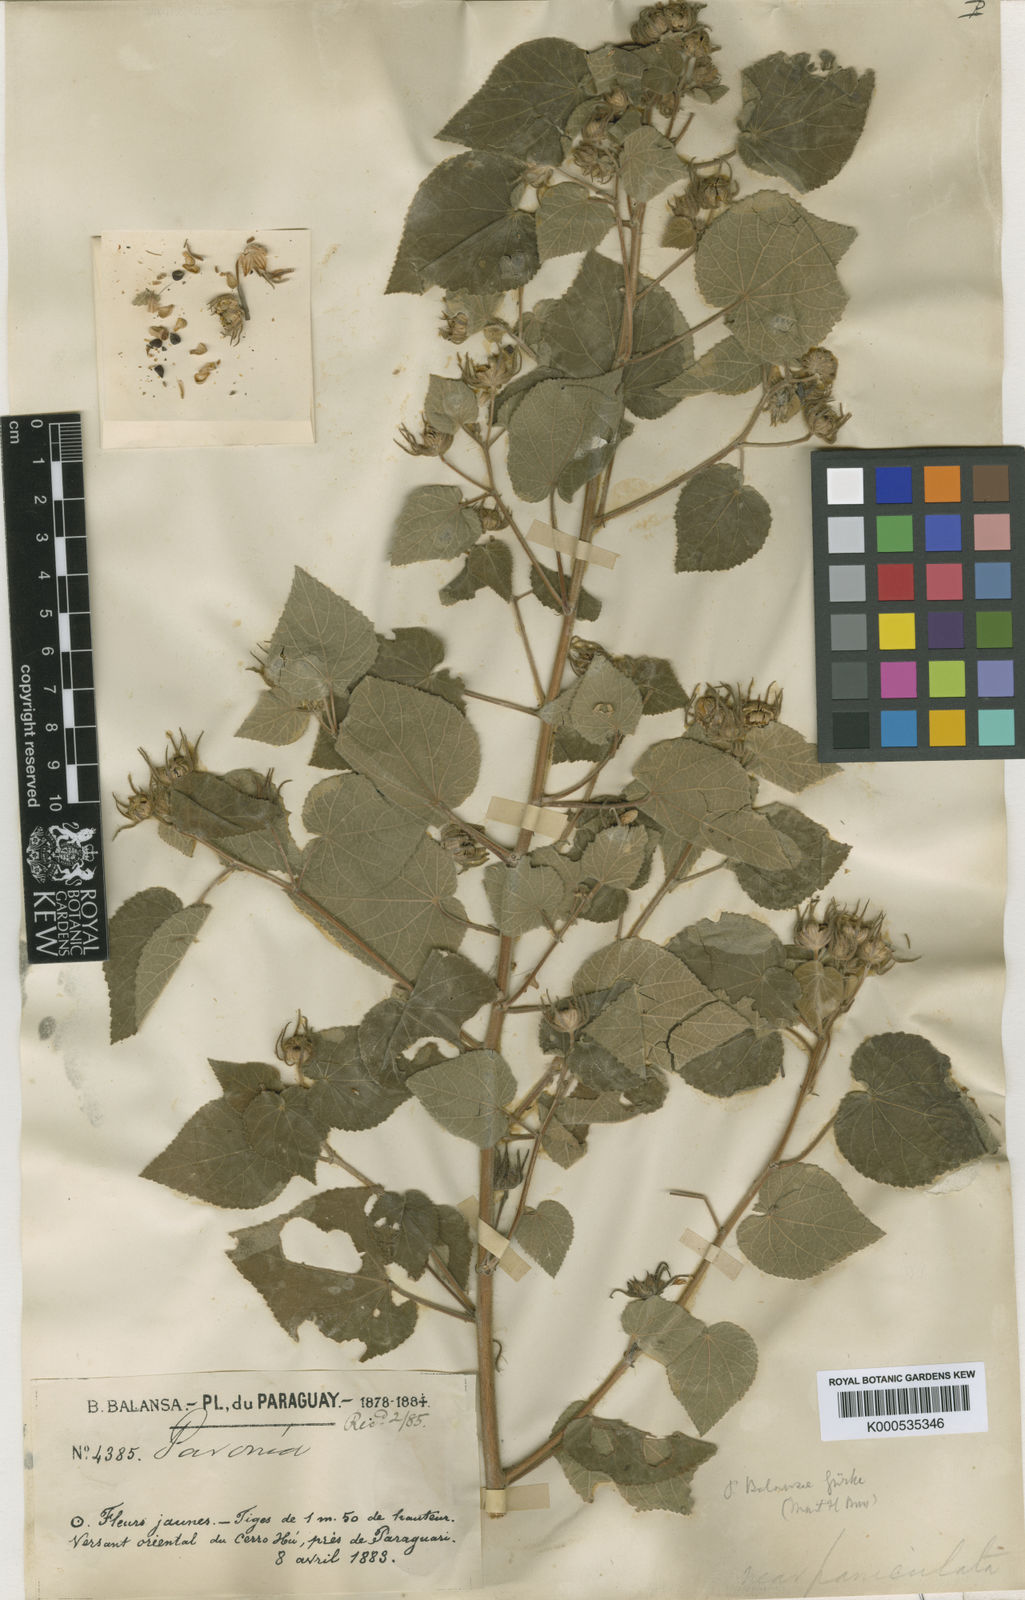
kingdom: Plantae
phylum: Tracheophyta
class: Magnoliopsida
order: Malvales
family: Malvaceae
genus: Pavonia
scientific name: Pavonia
